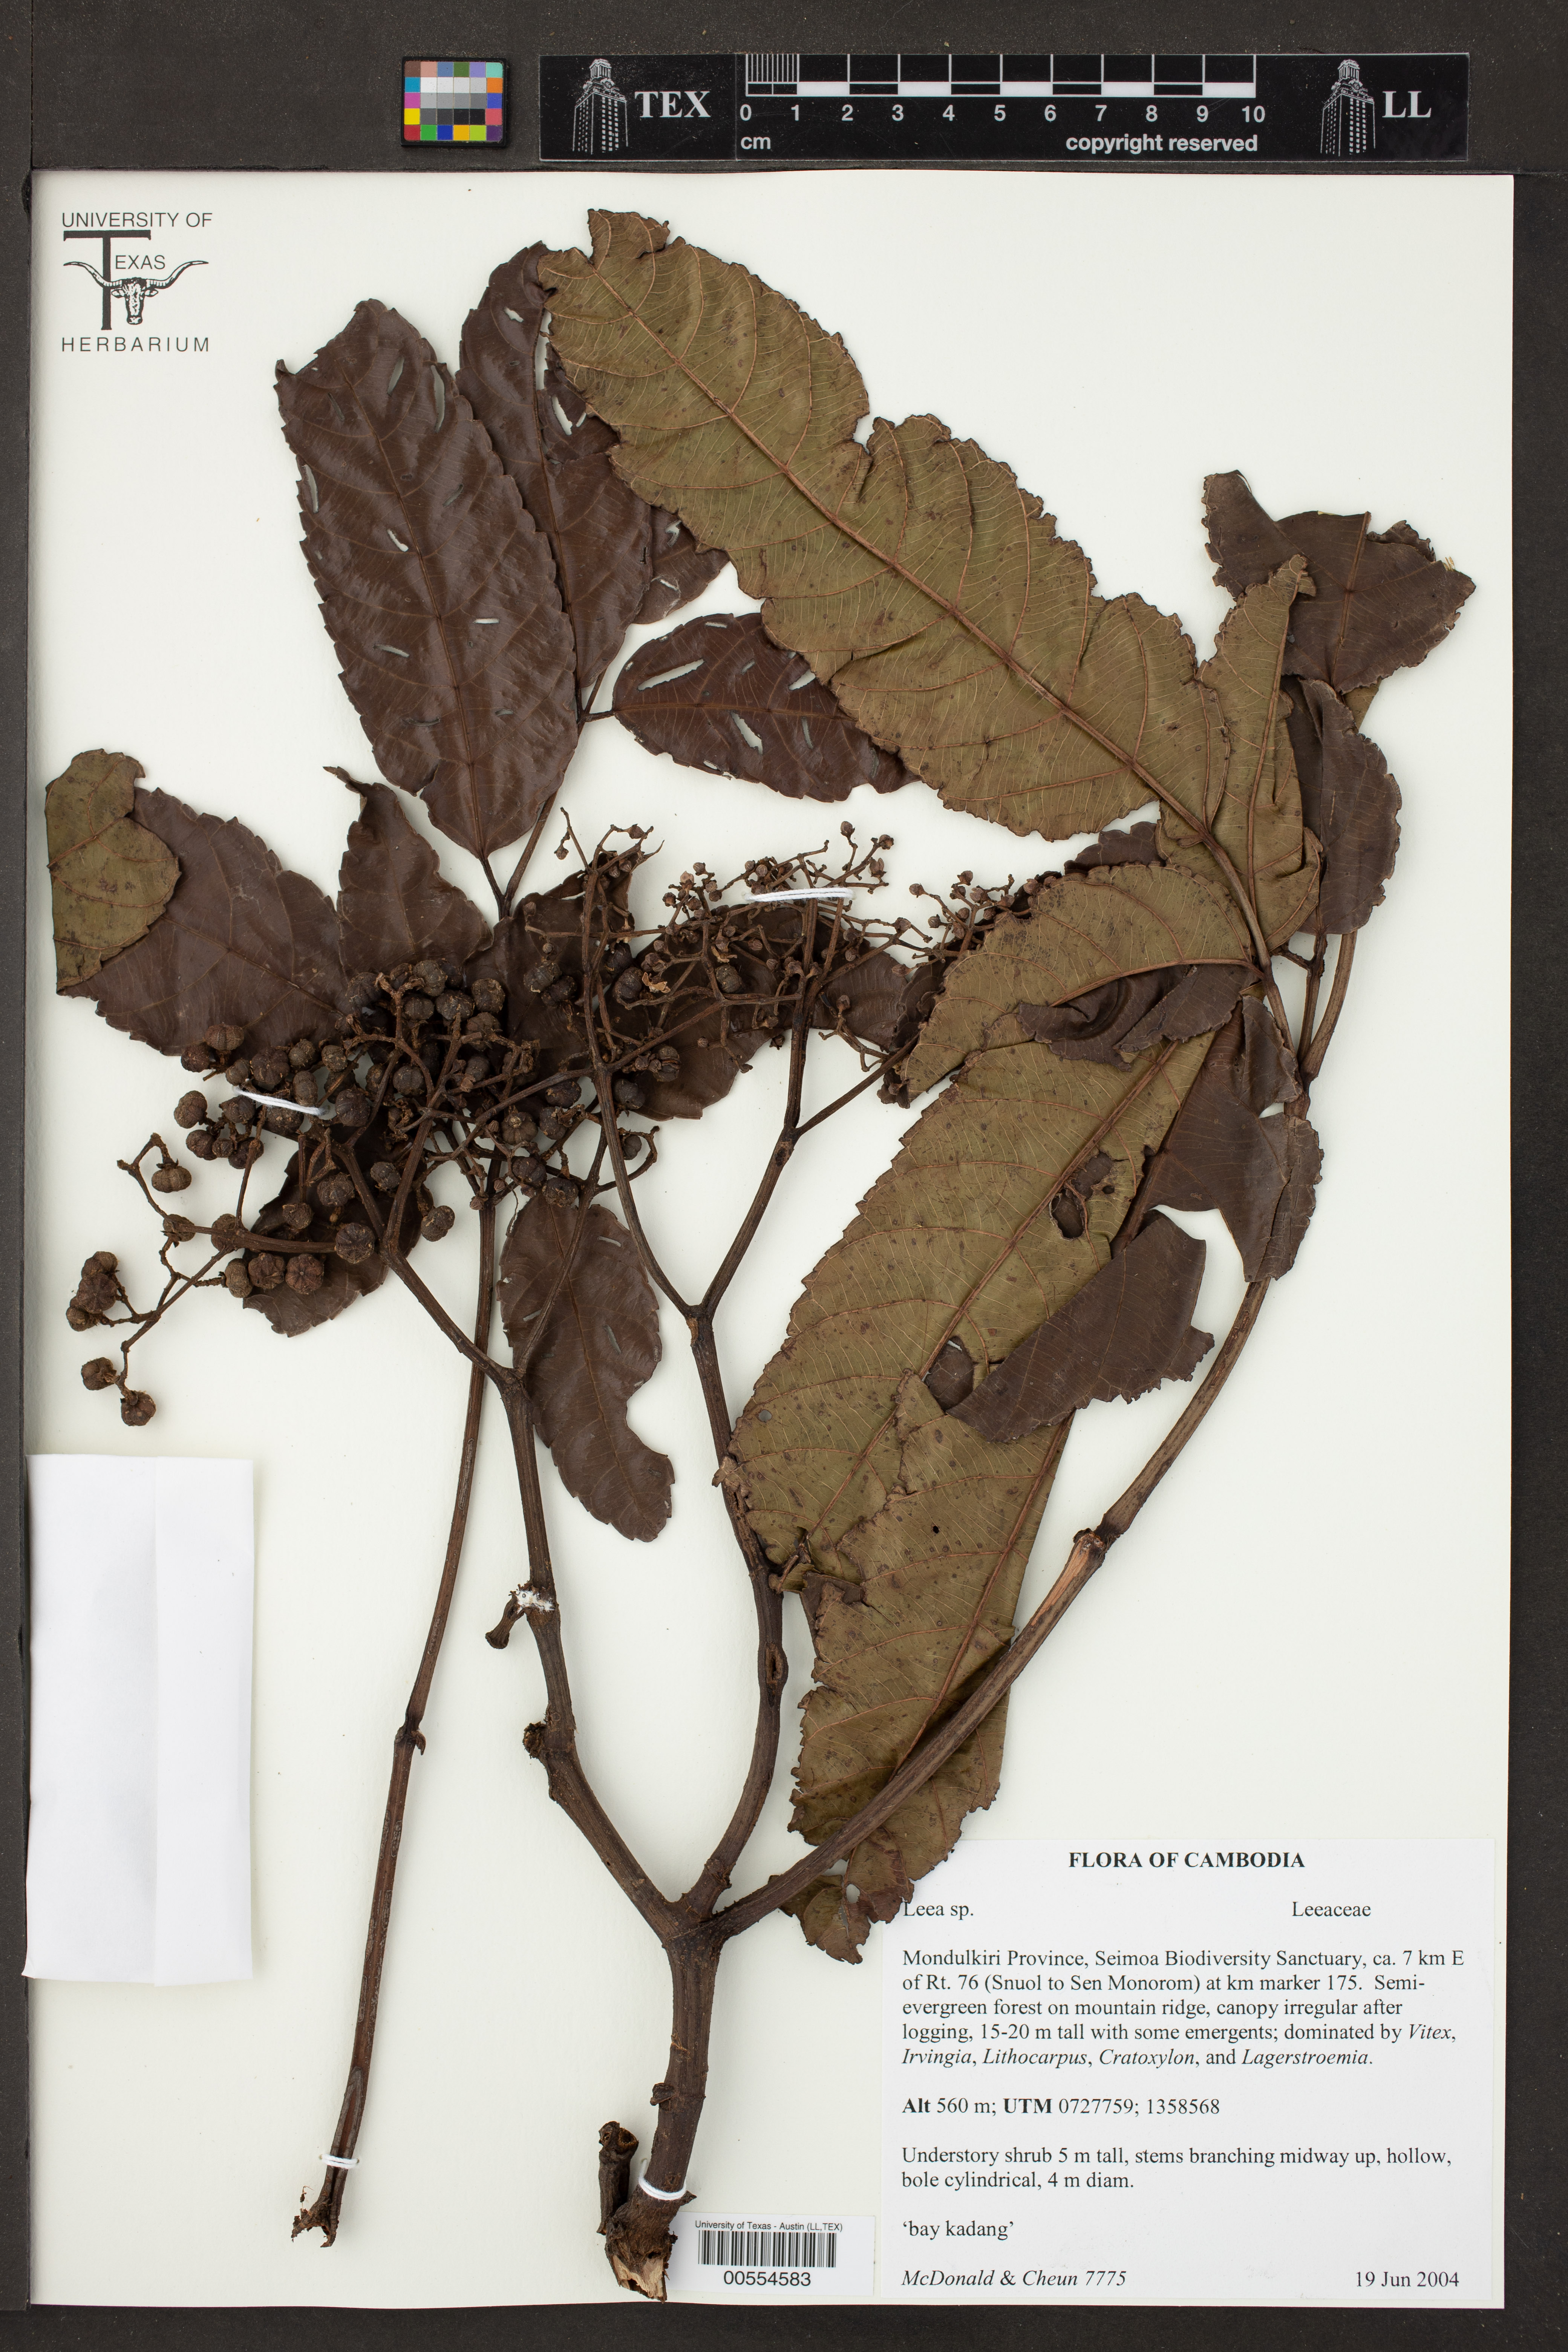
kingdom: Plantae
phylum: Tracheophyta
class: Magnoliopsida
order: Vitales
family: Vitaceae
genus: Leea
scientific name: Leea
